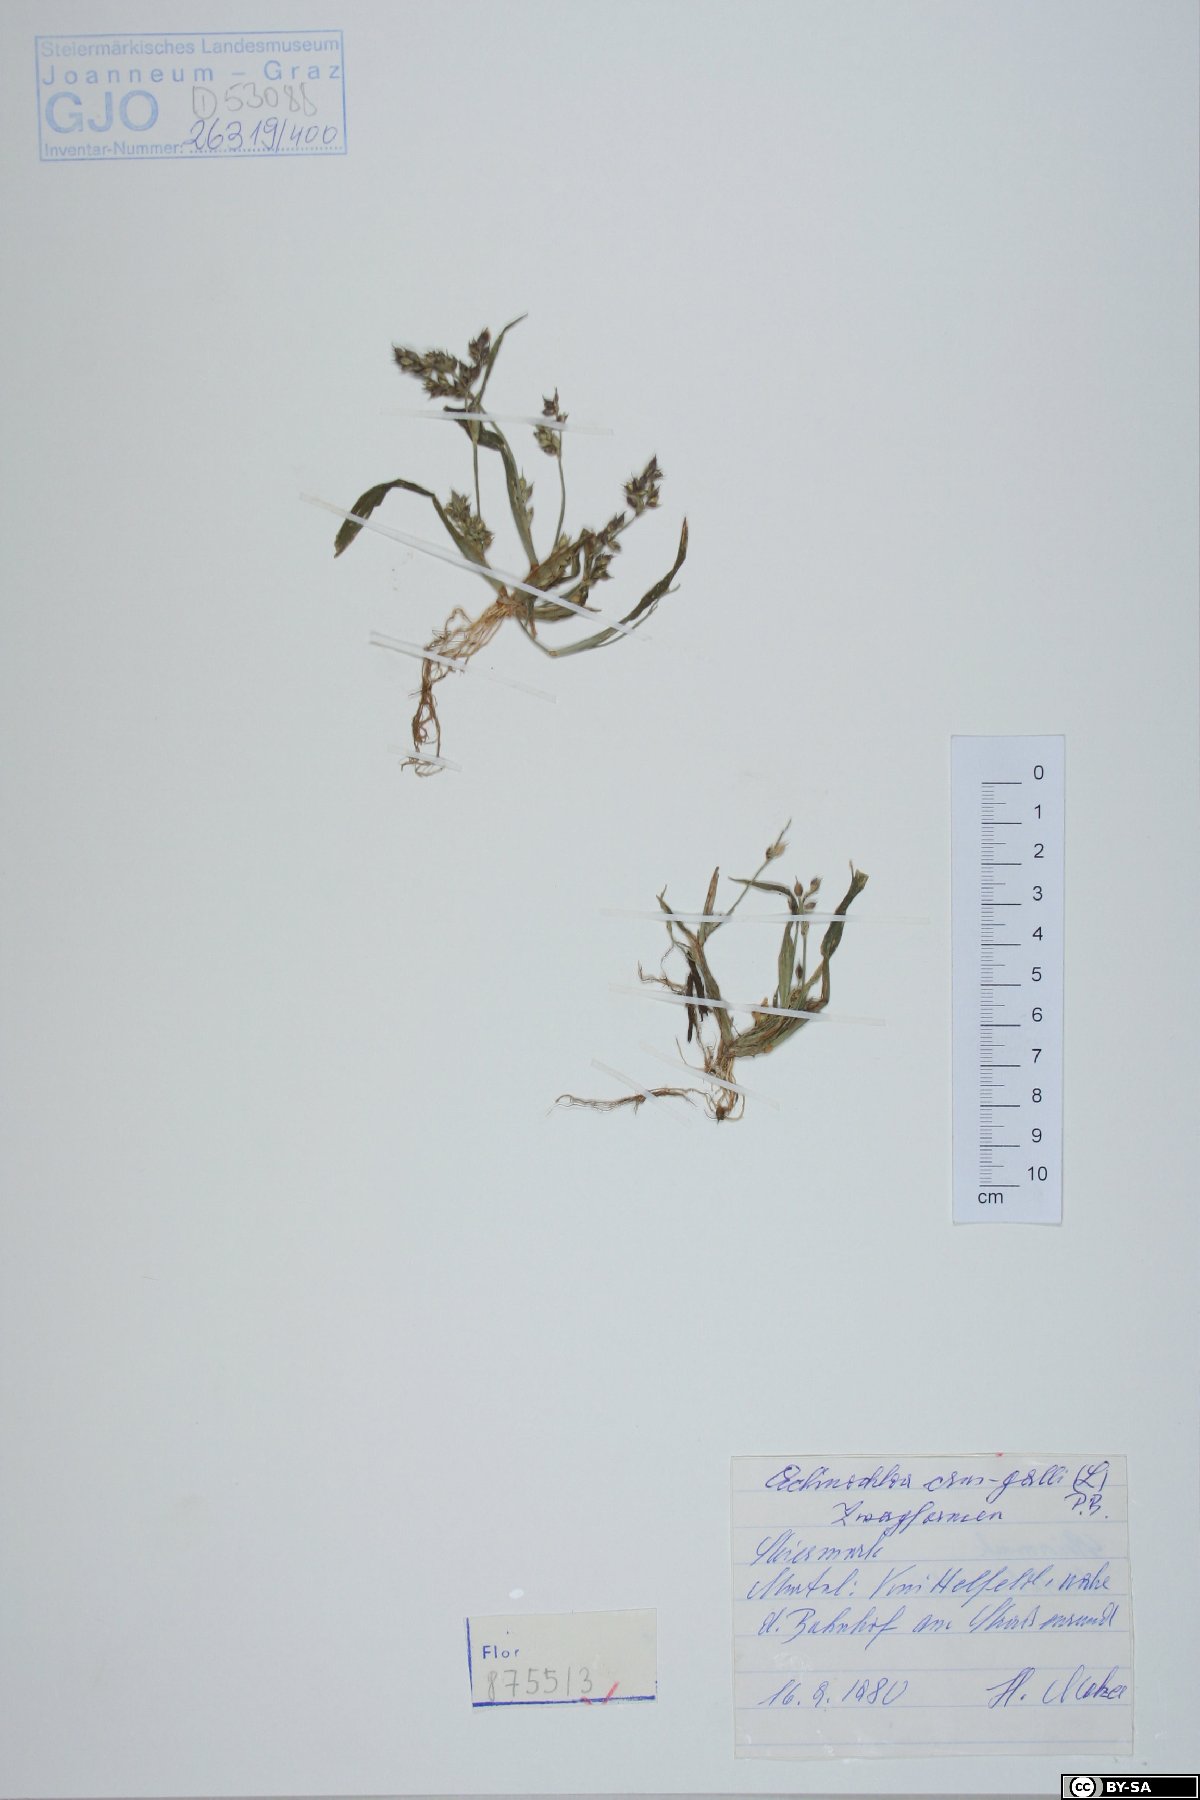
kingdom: Plantae
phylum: Tracheophyta
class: Liliopsida
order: Poales
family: Poaceae
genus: Echinochloa
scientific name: Echinochloa crus-galli
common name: Cockspur
